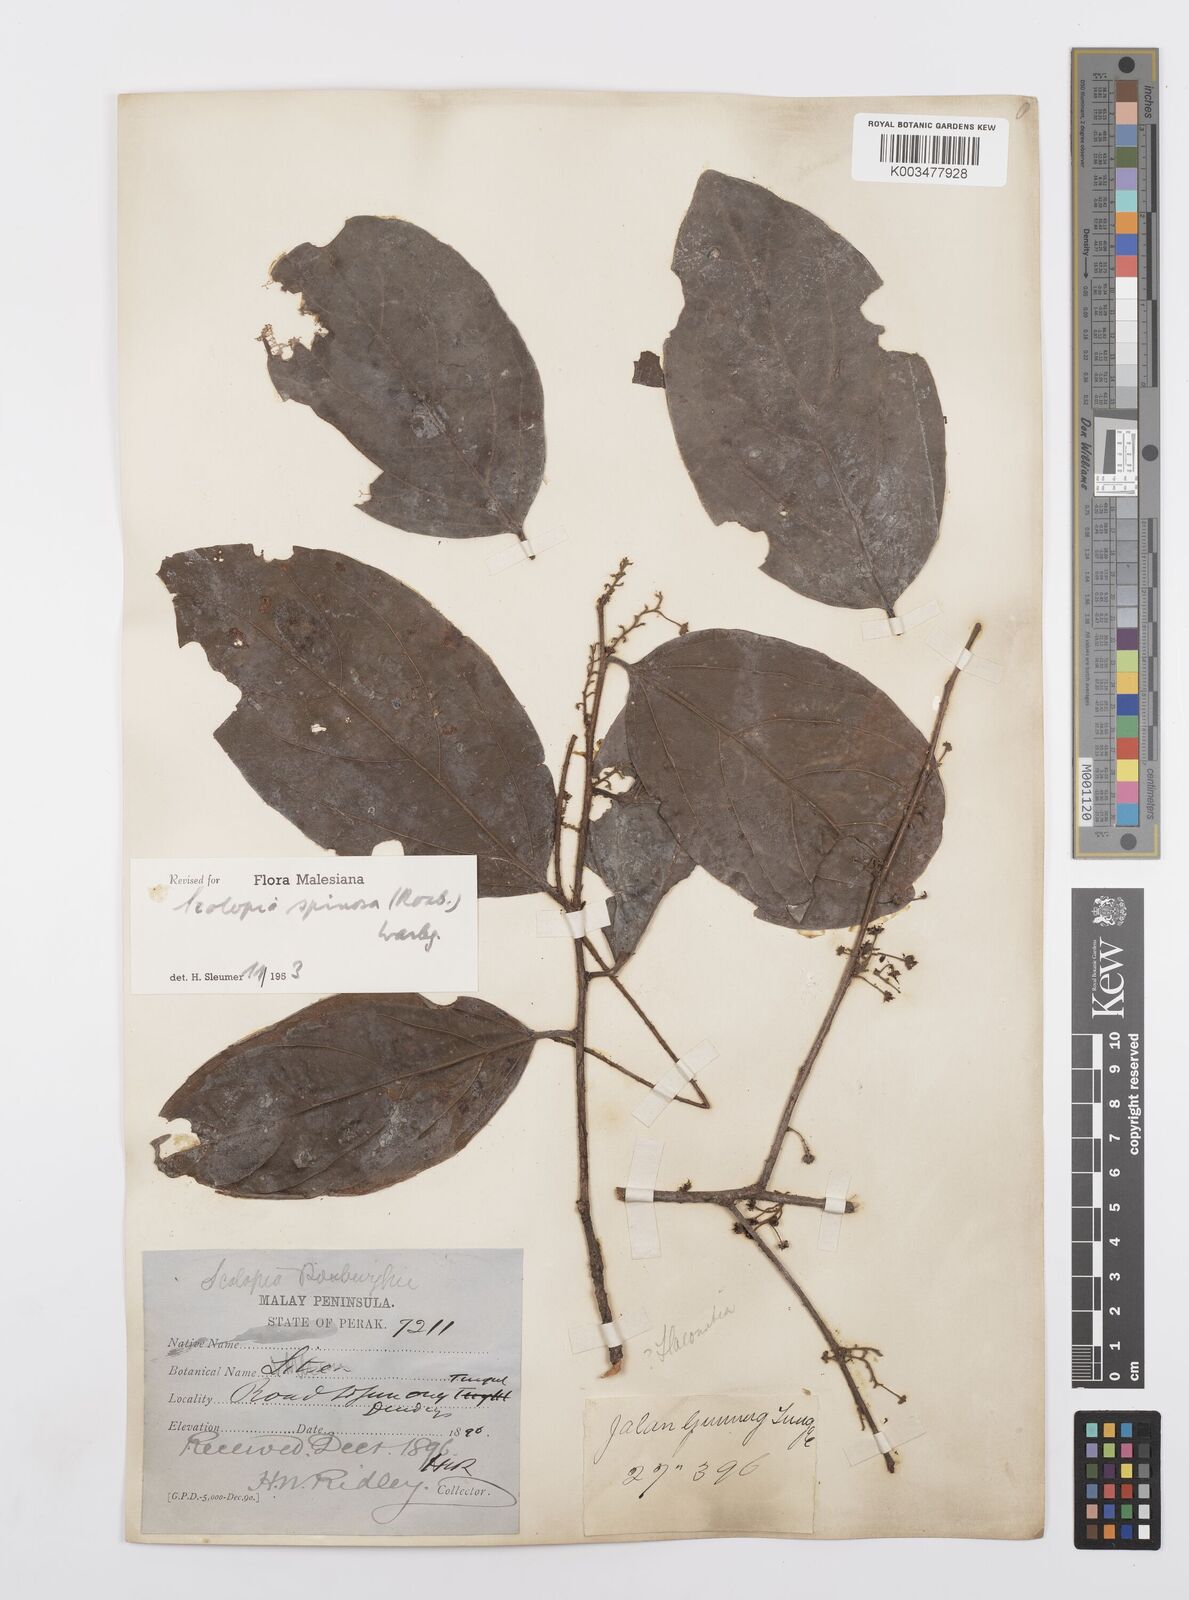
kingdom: Plantae
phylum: Tracheophyta
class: Magnoliopsida
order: Malpighiales
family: Salicaceae
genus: Scolopia
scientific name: Scolopia spinosa
